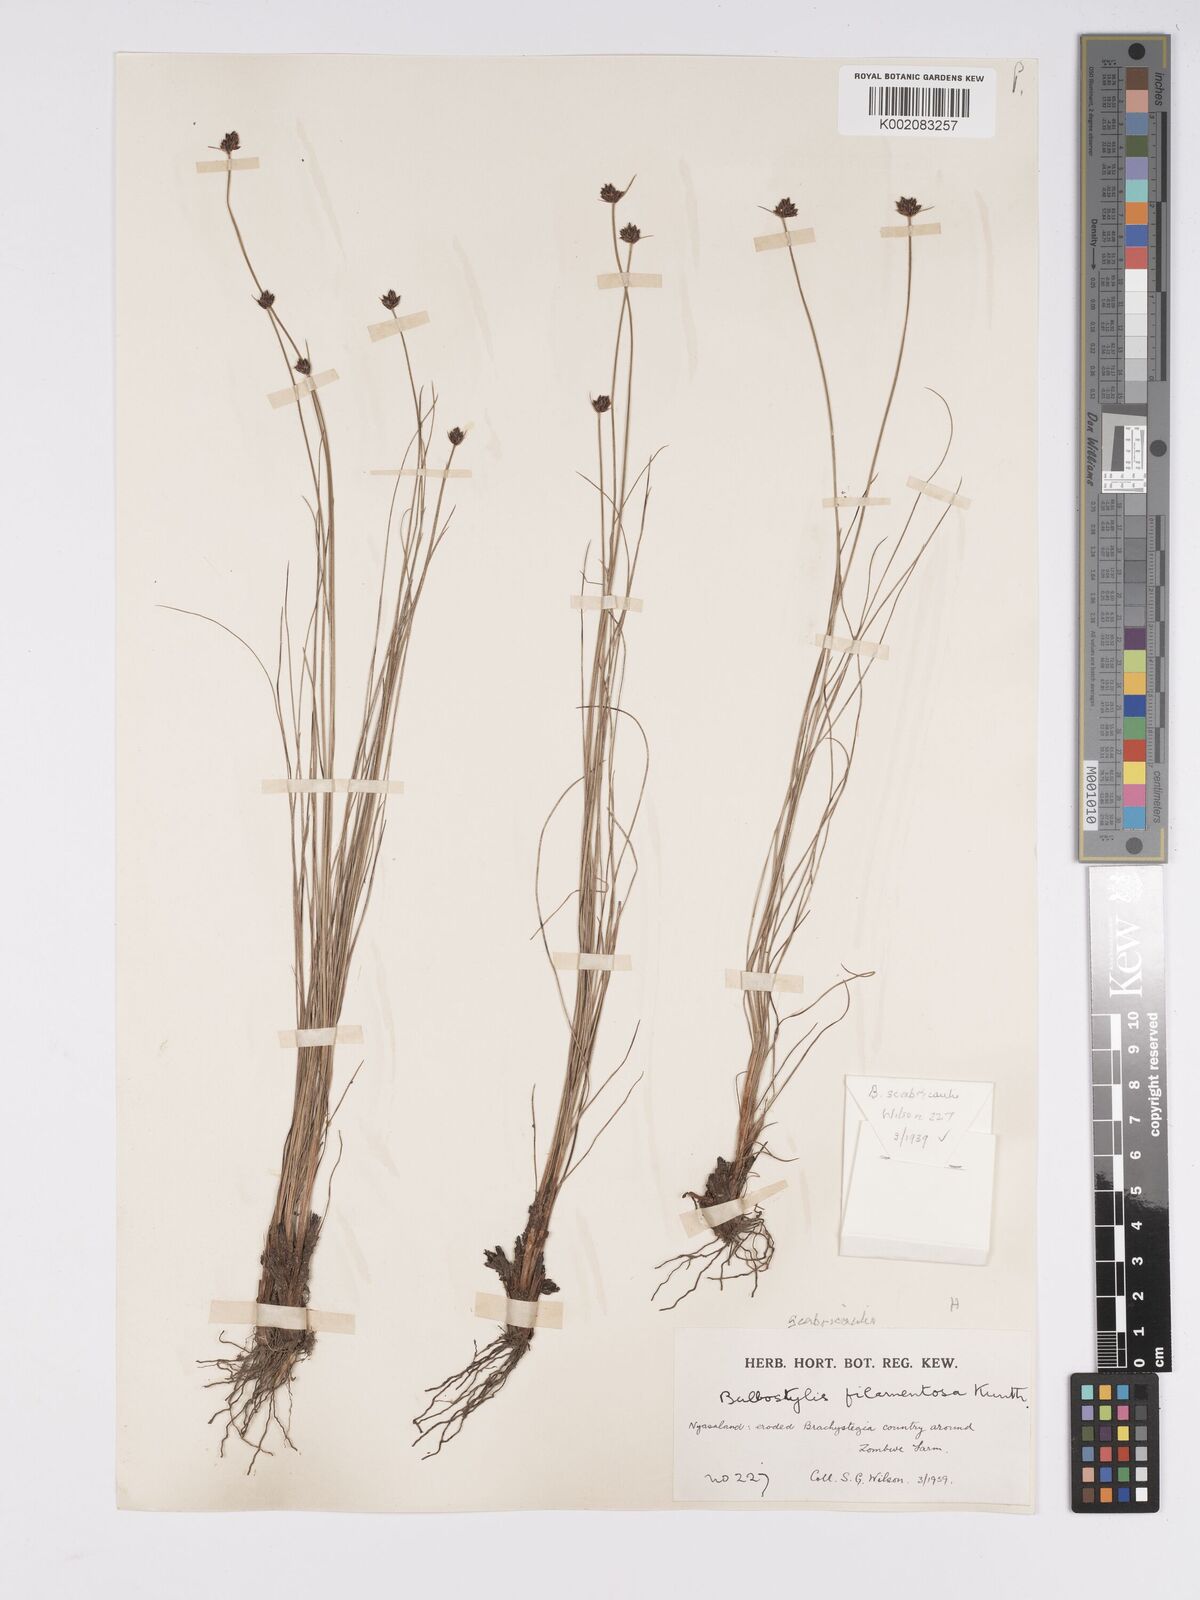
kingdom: Plantae
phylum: Tracheophyta
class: Liliopsida
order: Poales
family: Cyperaceae
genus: Bulbostylis
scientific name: Bulbostylis scabricaulis
